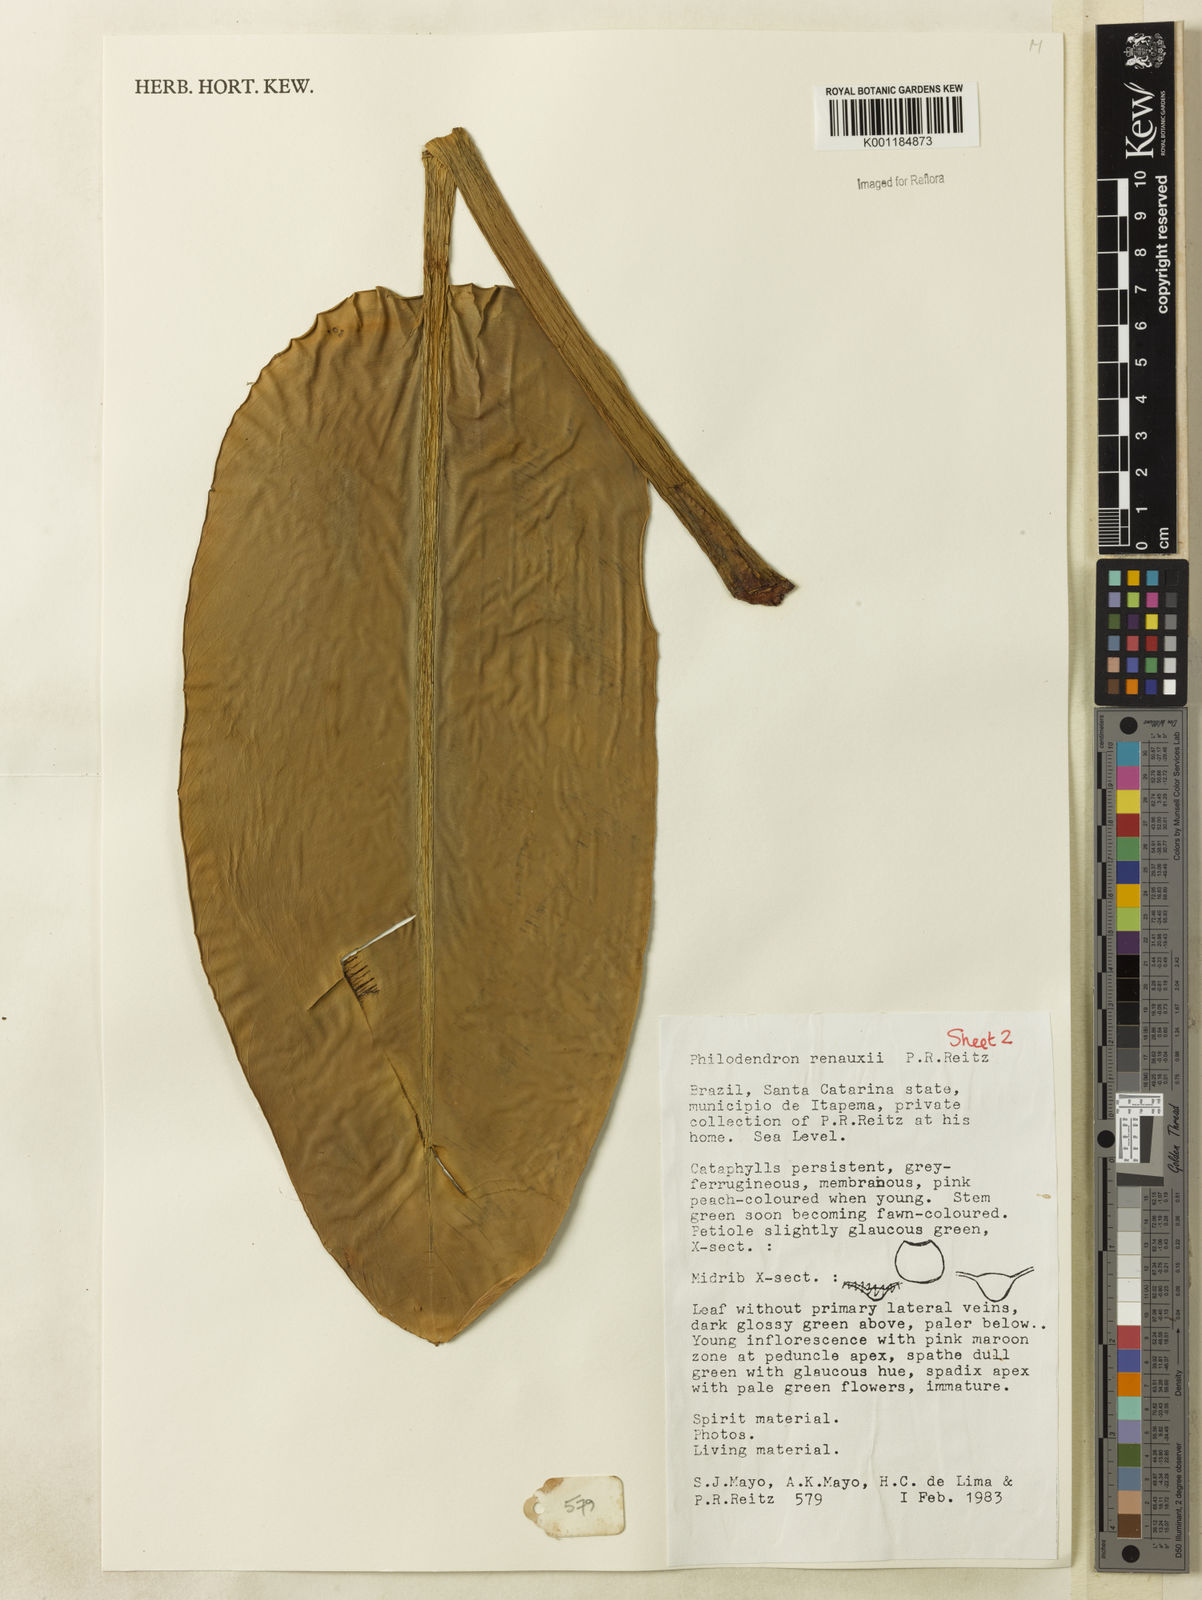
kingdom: Plantae
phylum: Tracheophyta
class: Liliopsida
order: Alismatales
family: Araceae
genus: Philodendron
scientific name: Philodendron renauxii
